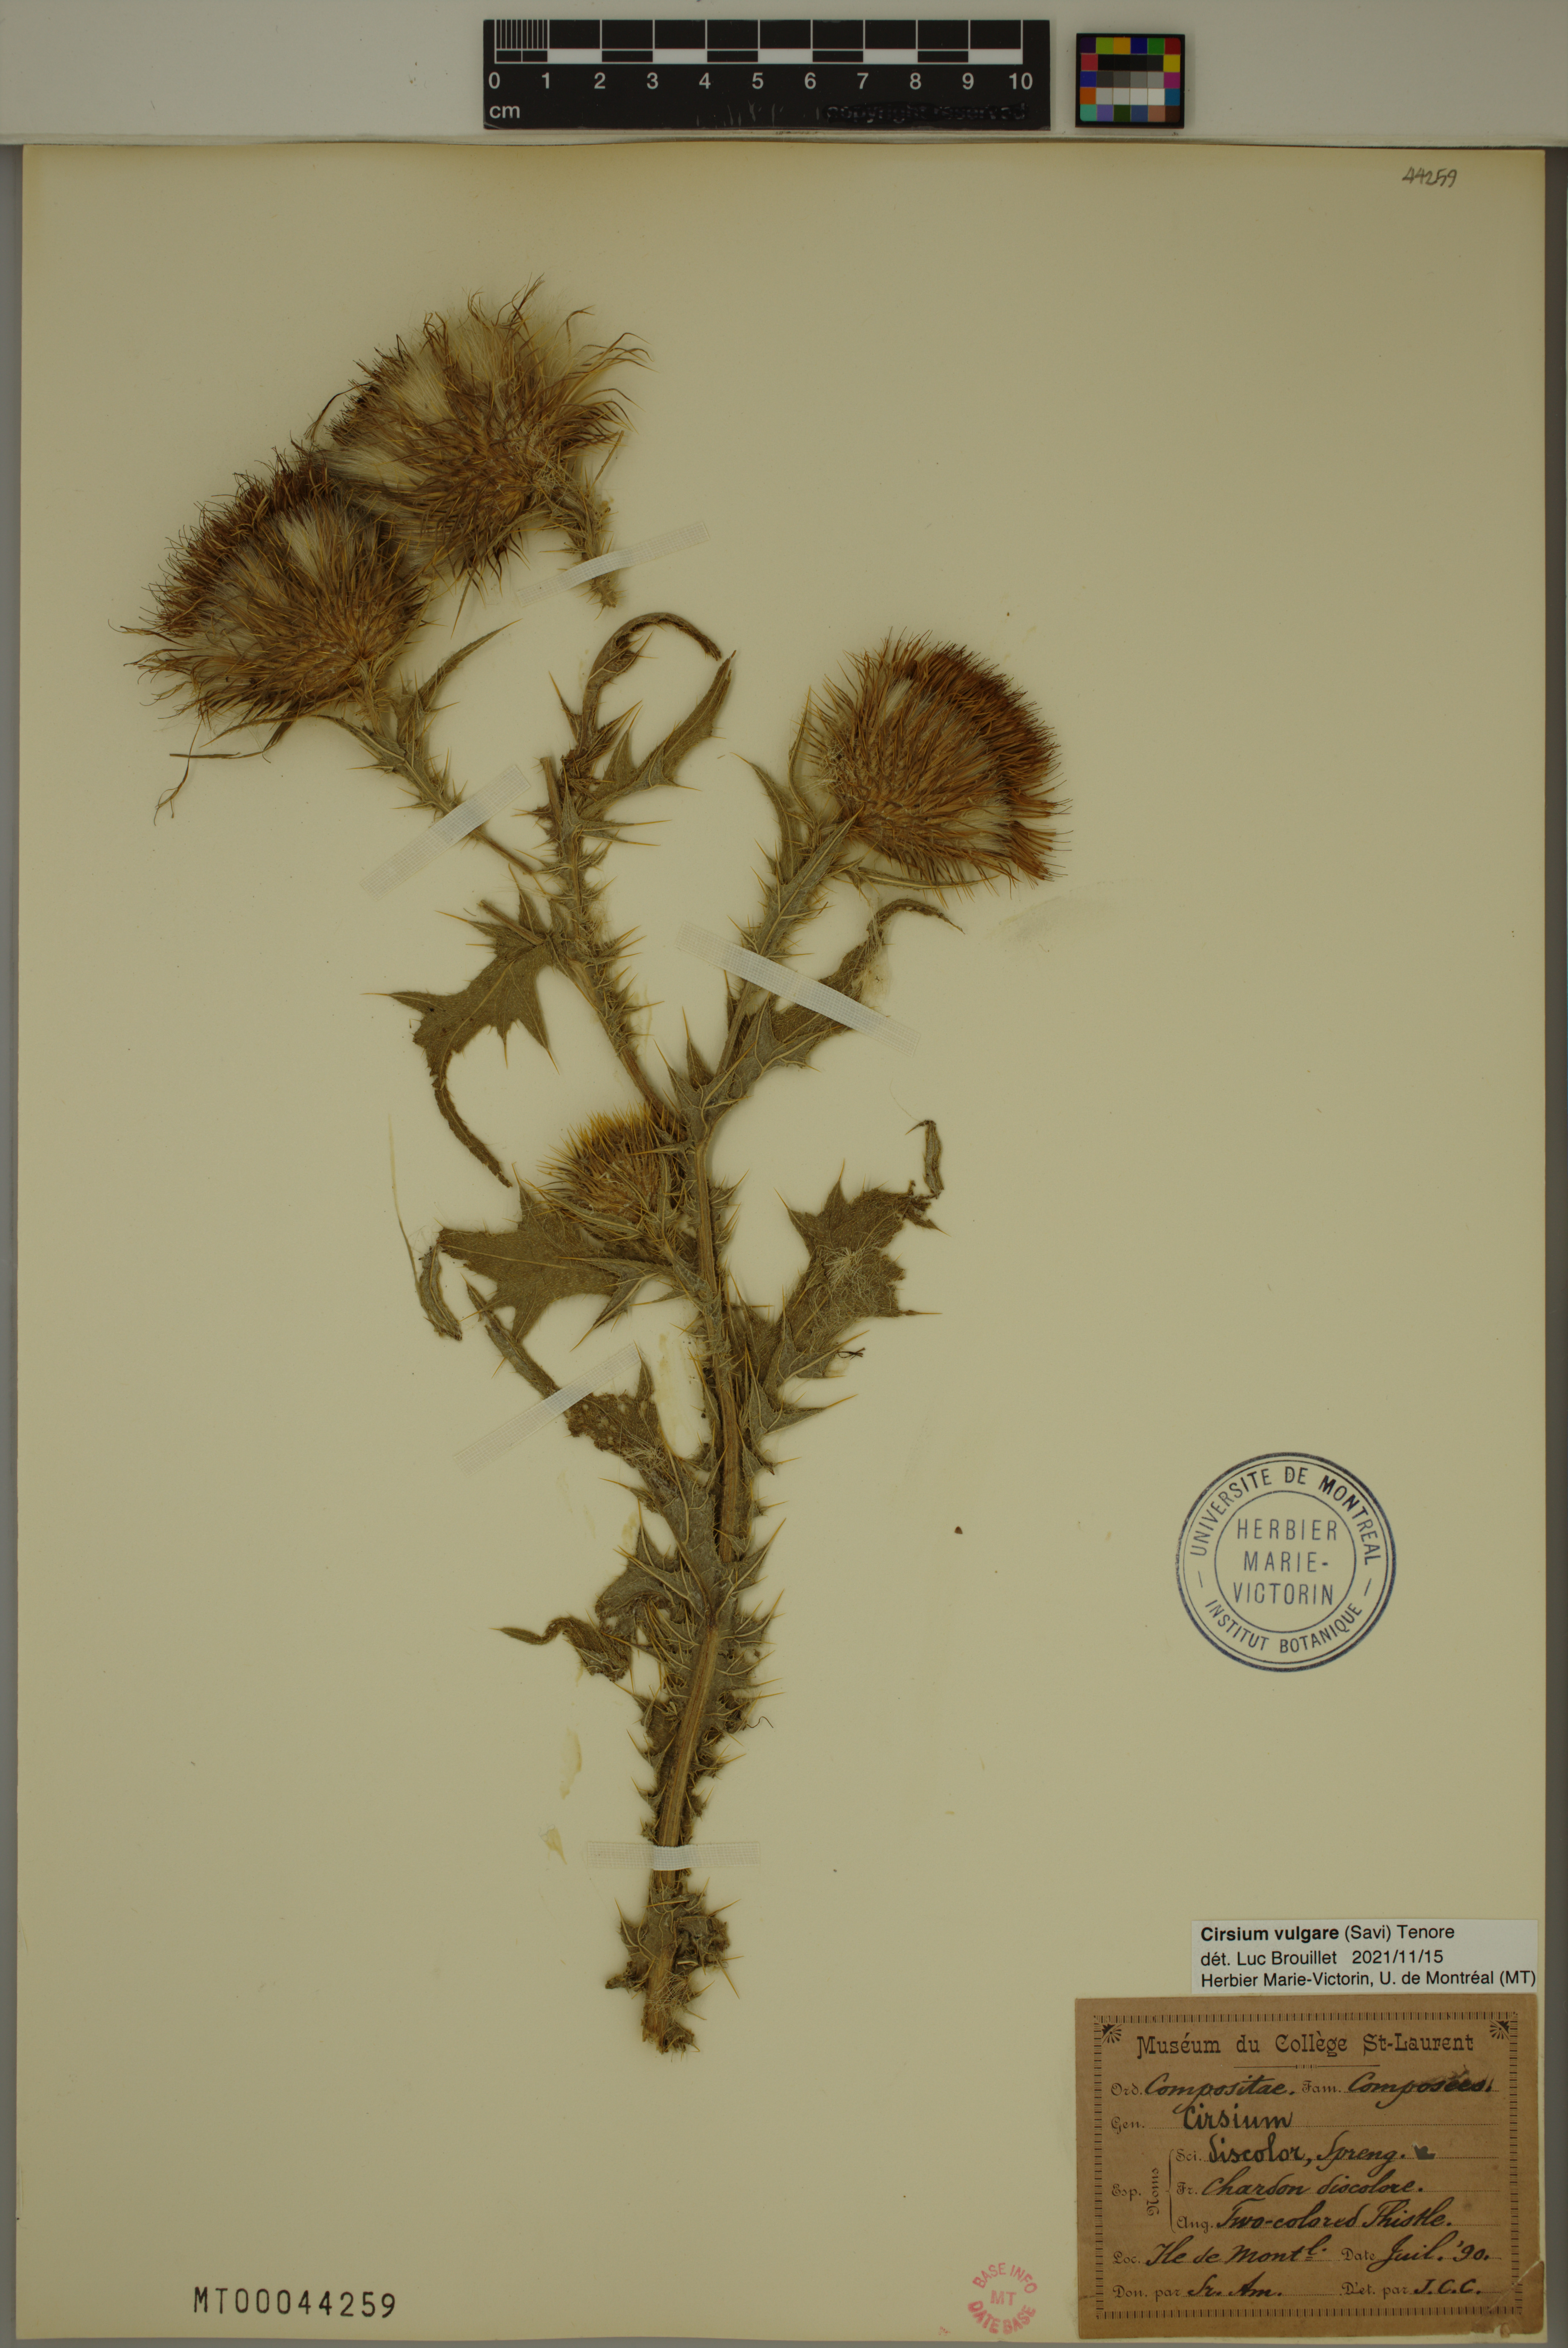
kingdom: Plantae
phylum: Tracheophyta
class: Magnoliopsida
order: Asterales
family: Asteraceae
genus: Cirsium
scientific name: Cirsium vulgare
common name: Bull thistle
